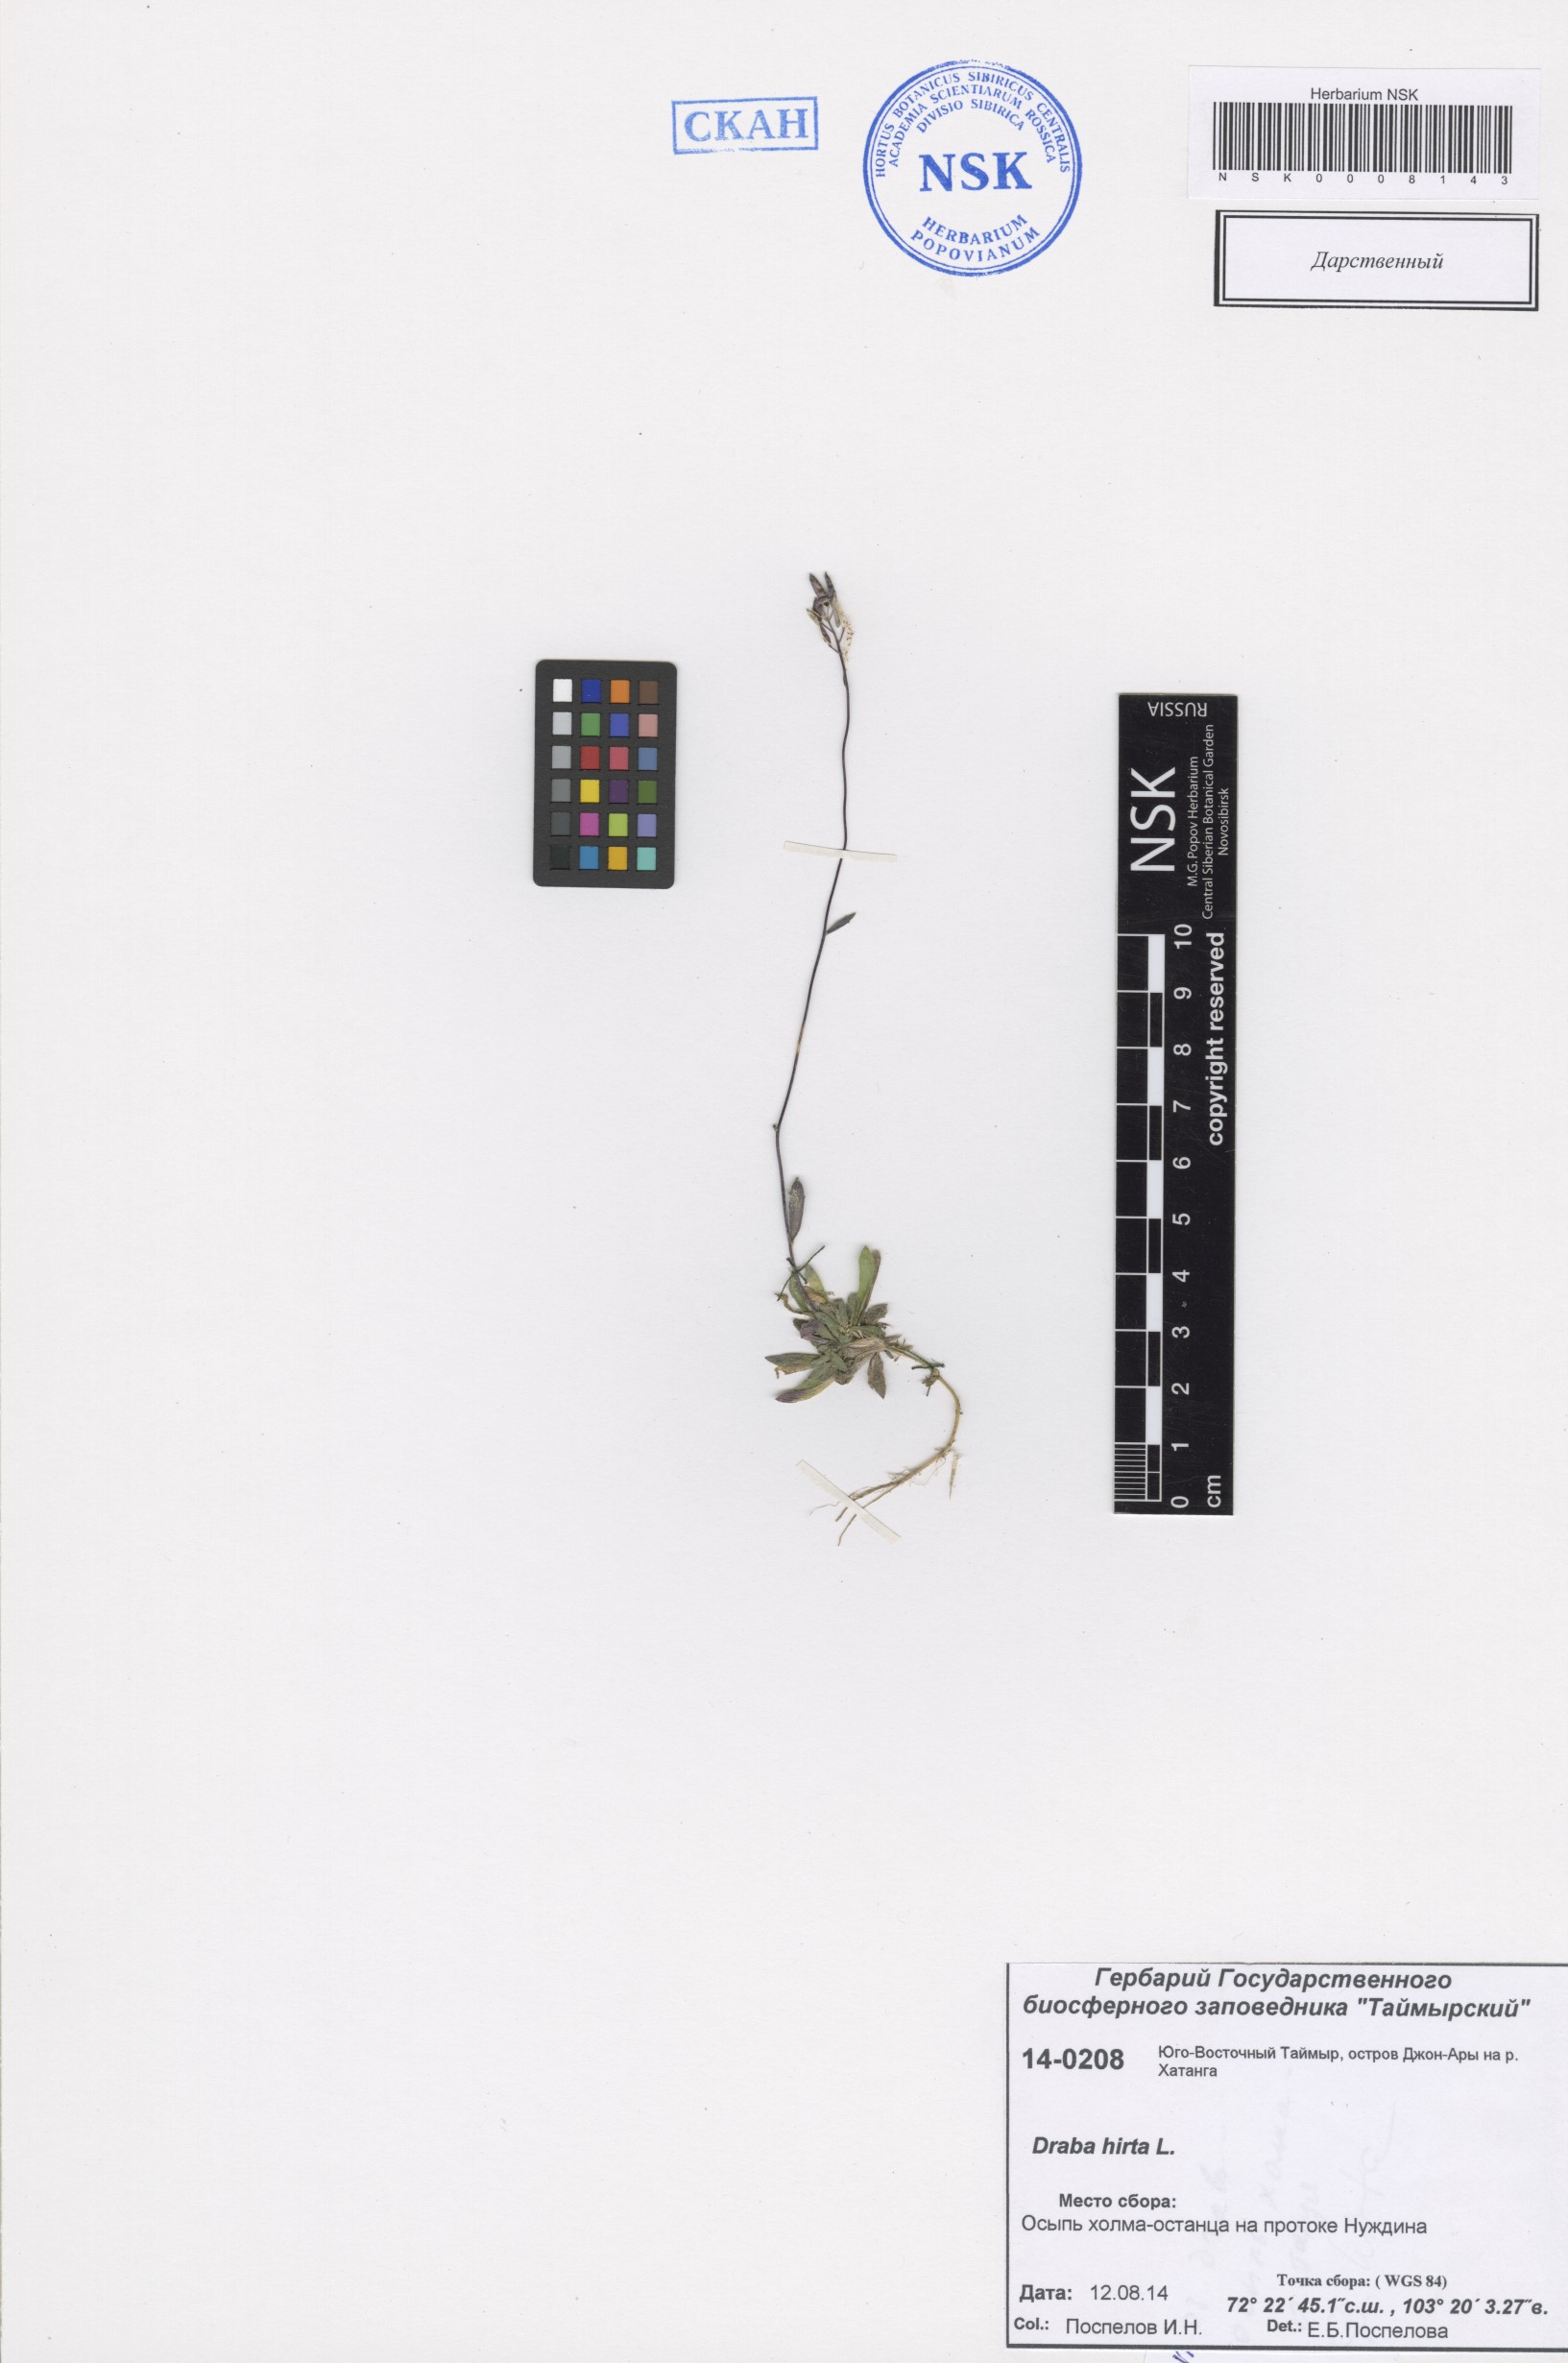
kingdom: Plantae
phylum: Tracheophyta
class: Magnoliopsida
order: Brassicales
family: Brassicaceae
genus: Draba
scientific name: Draba glabella
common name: Glaucous draba
